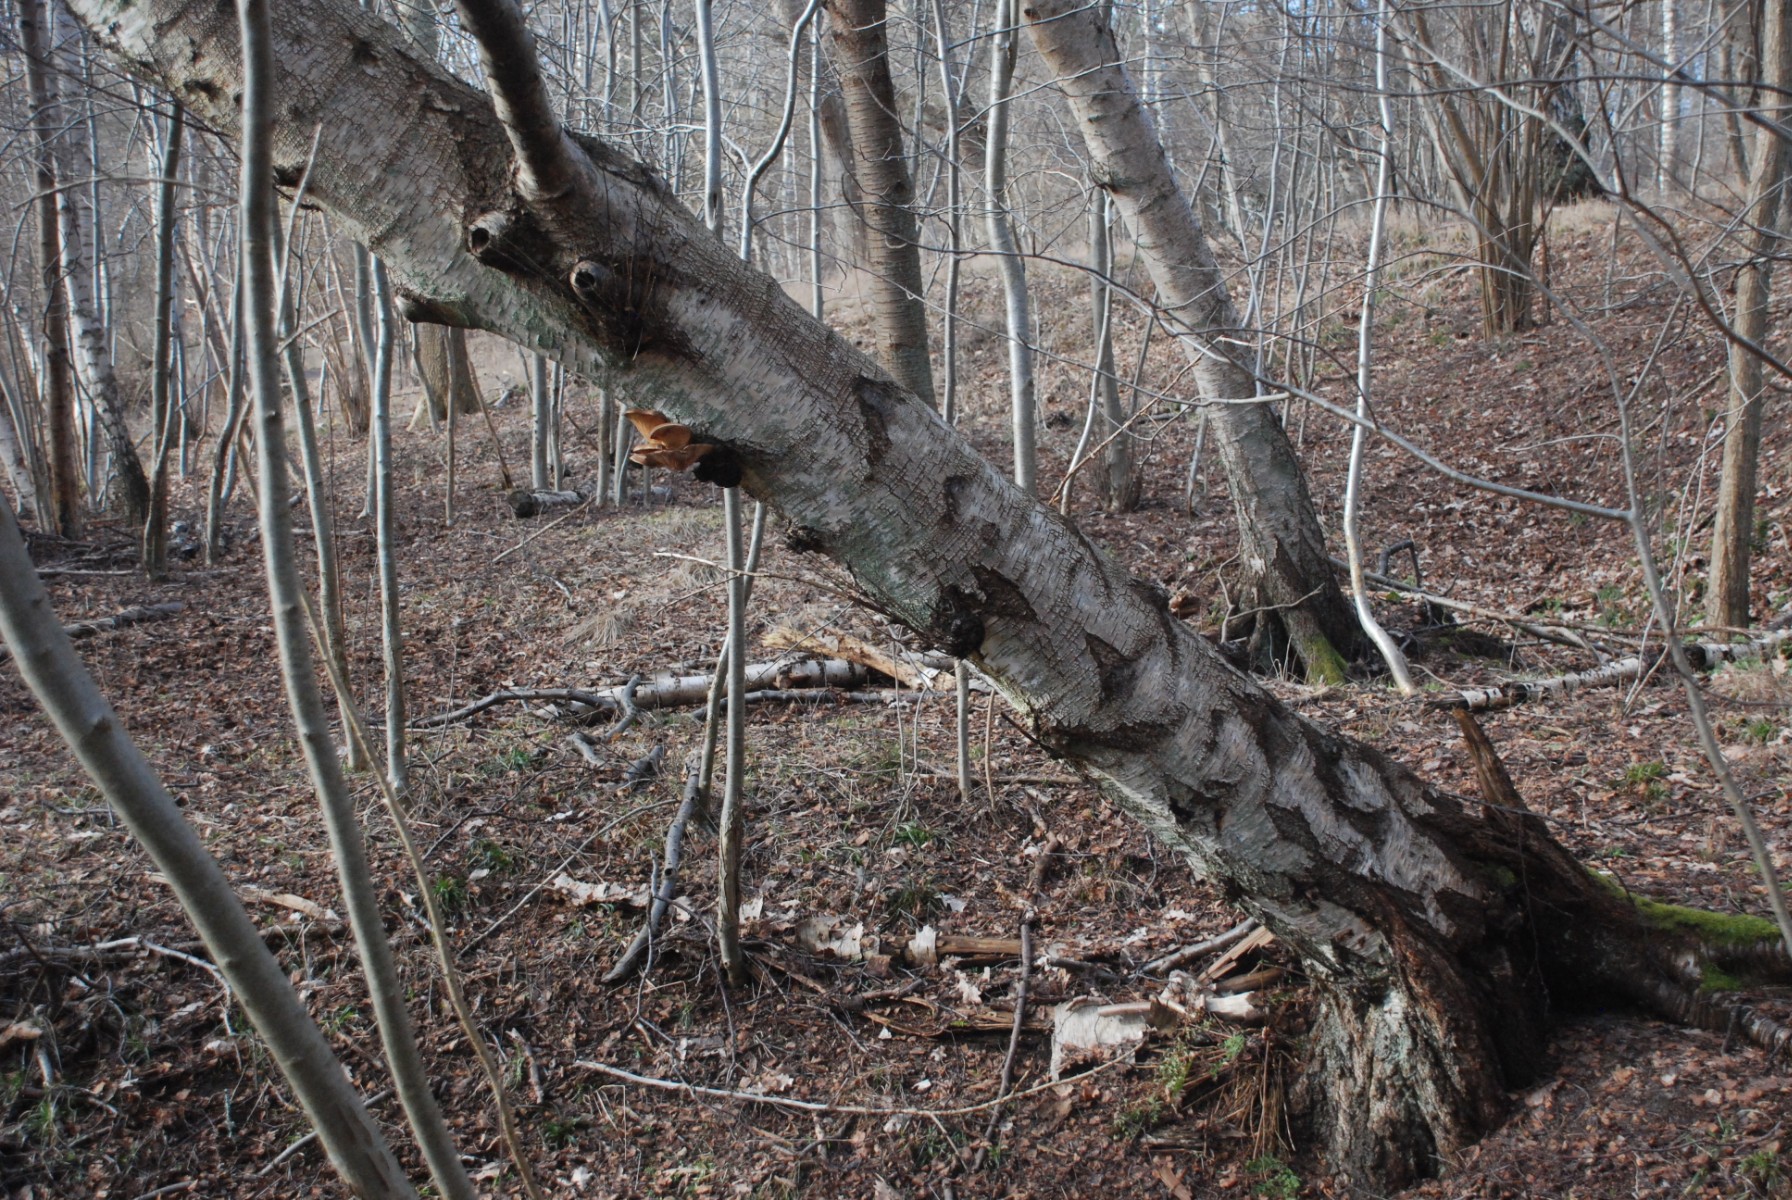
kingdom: Fungi
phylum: Basidiomycota
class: Agaricomycetes
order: Agaricales
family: Pleurotaceae
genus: Pleurotus
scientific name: Pleurotus ostreatus
